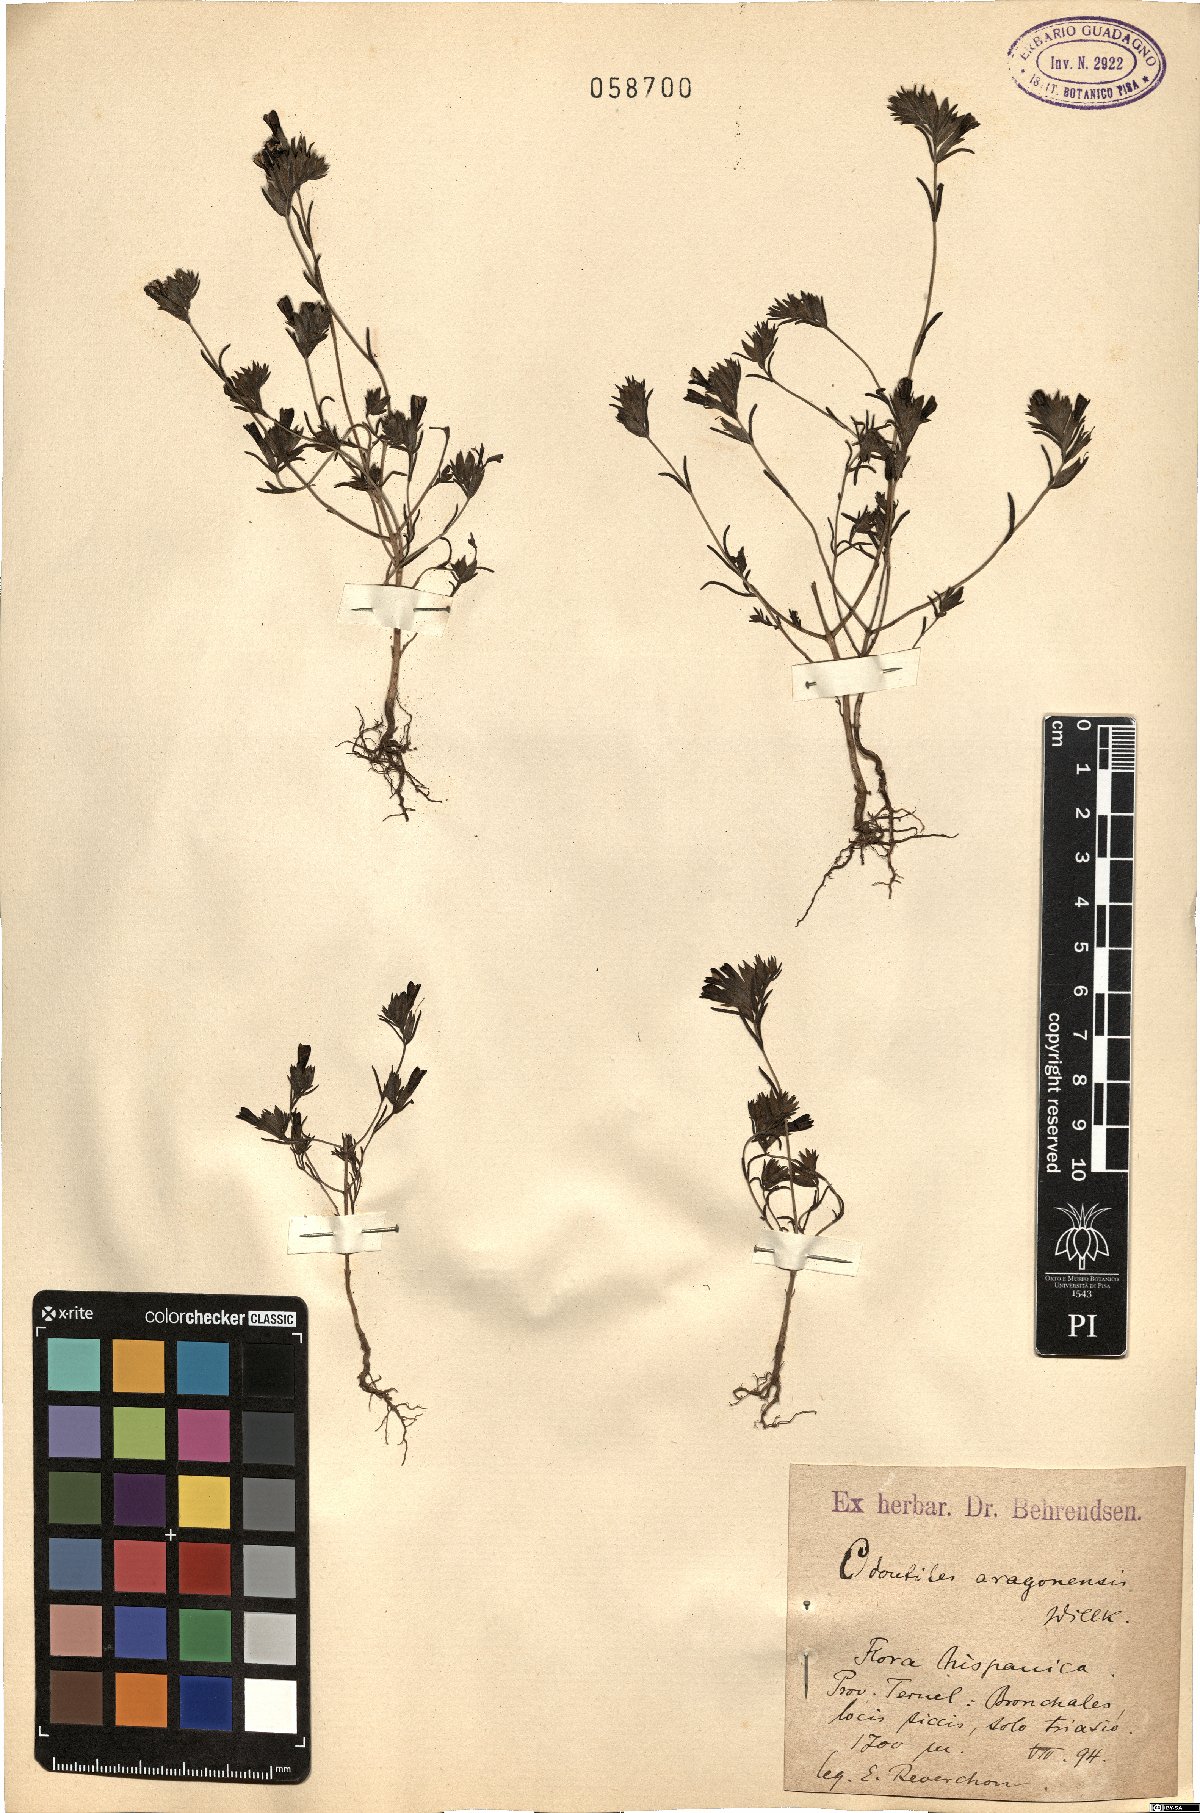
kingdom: Plantae
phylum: Tracheophyta
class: Magnoliopsida
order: Lamiales
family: Orobanchaceae
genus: Odontitella
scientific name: Odontitella virgata
